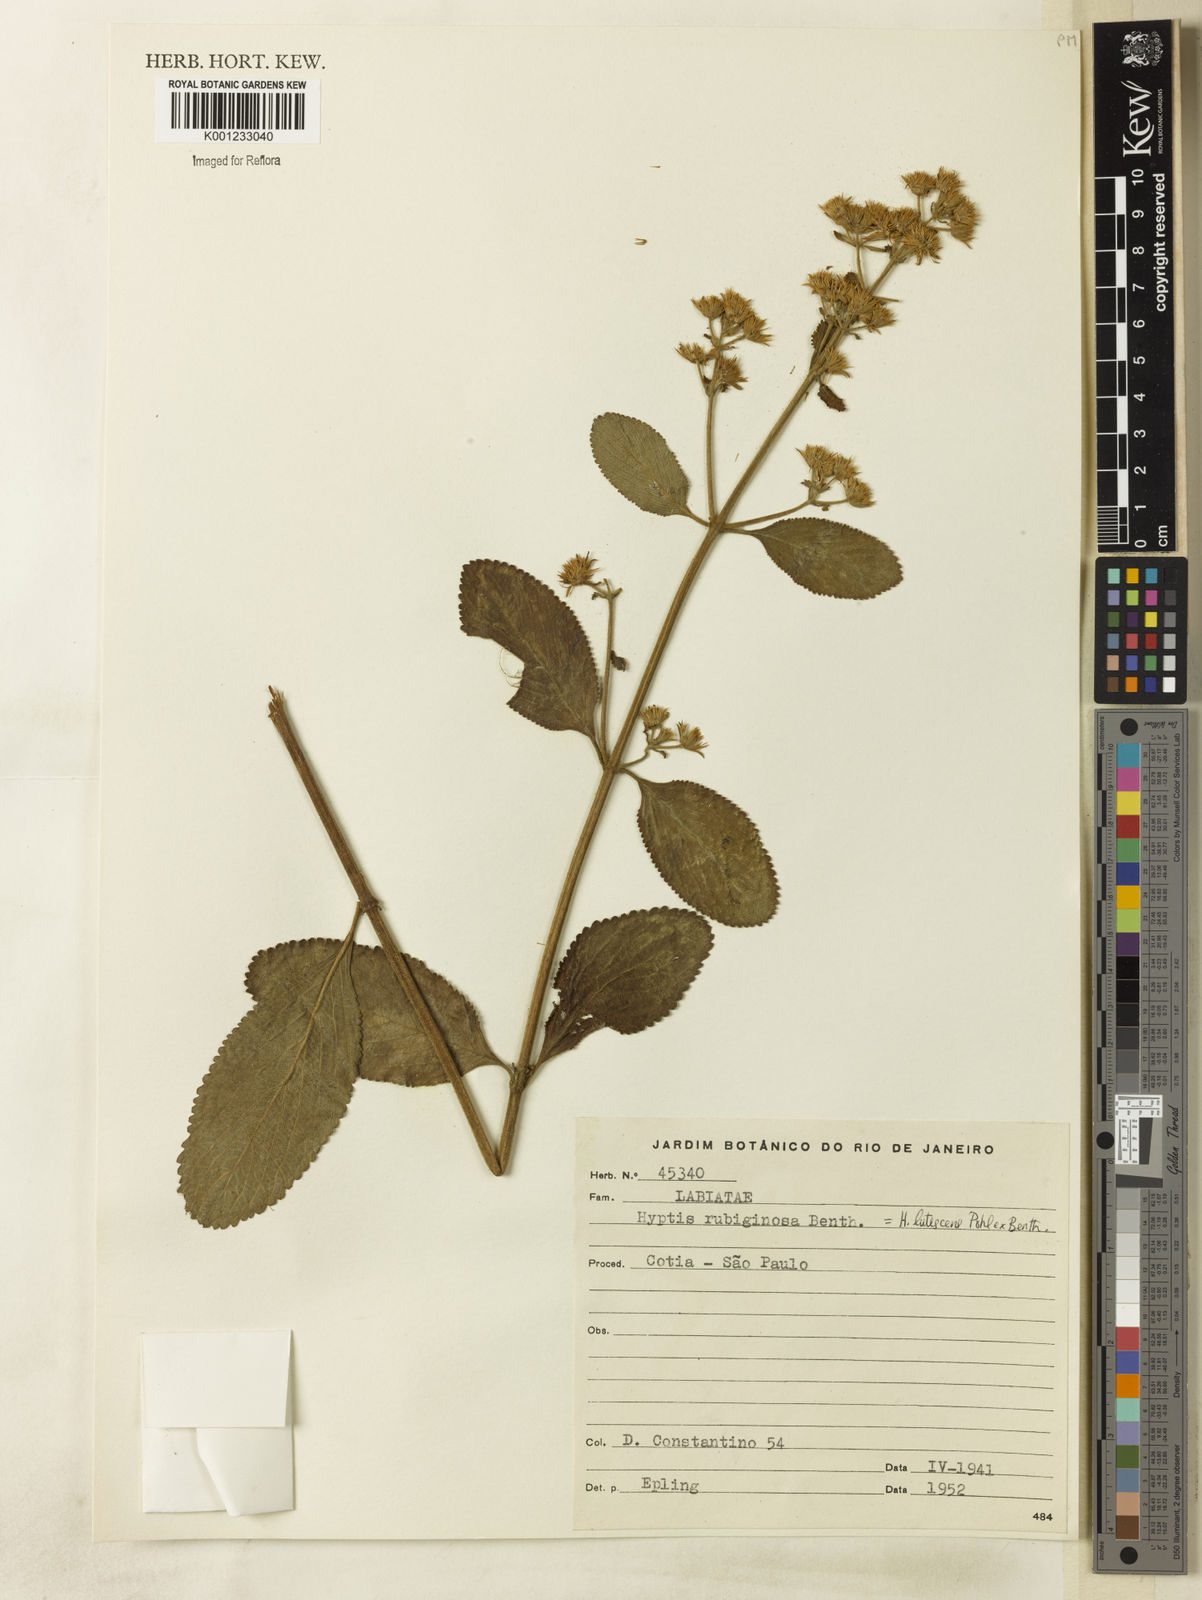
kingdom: Plantae
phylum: Tracheophyta
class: Magnoliopsida
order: Lamiales
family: Lamiaceae
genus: Hyptis
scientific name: Hyptis lutescens
